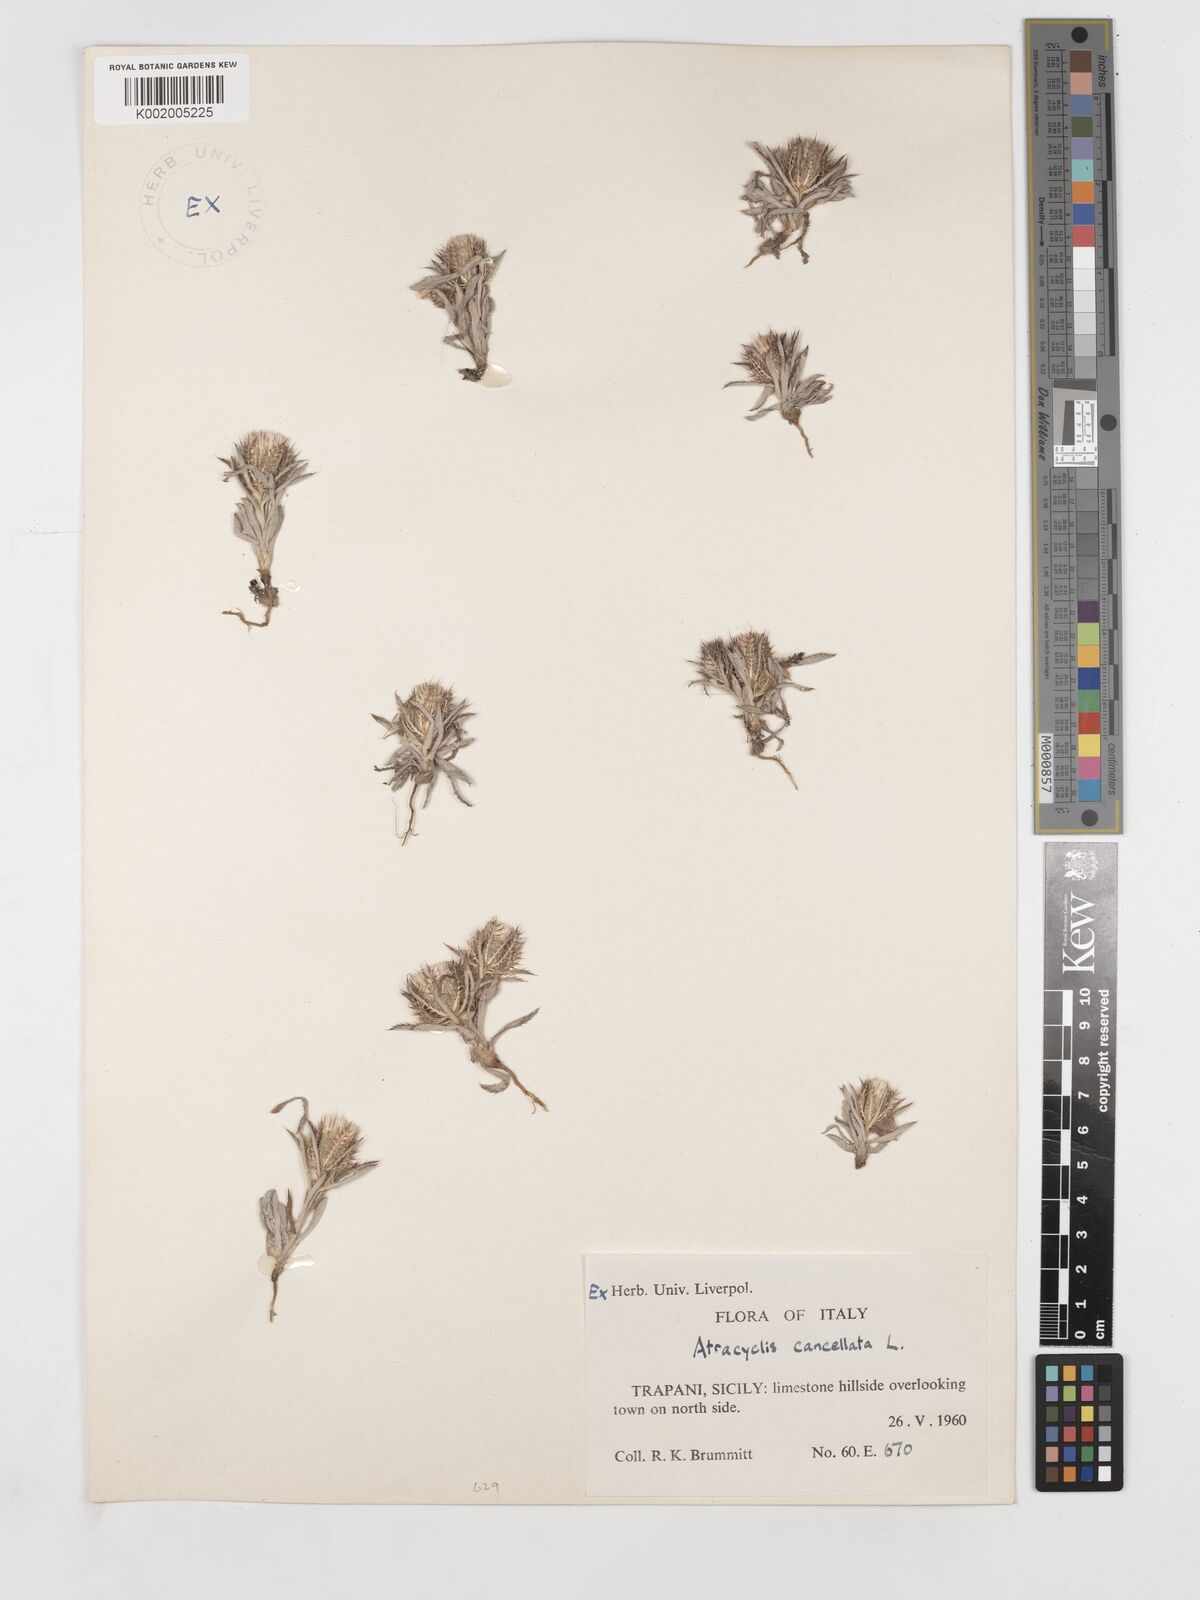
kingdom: Plantae
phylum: Tracheophyta
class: Magnoliopsida
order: Asterales
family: Asteraceae
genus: Atractylis
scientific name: Atractylis cancellata
